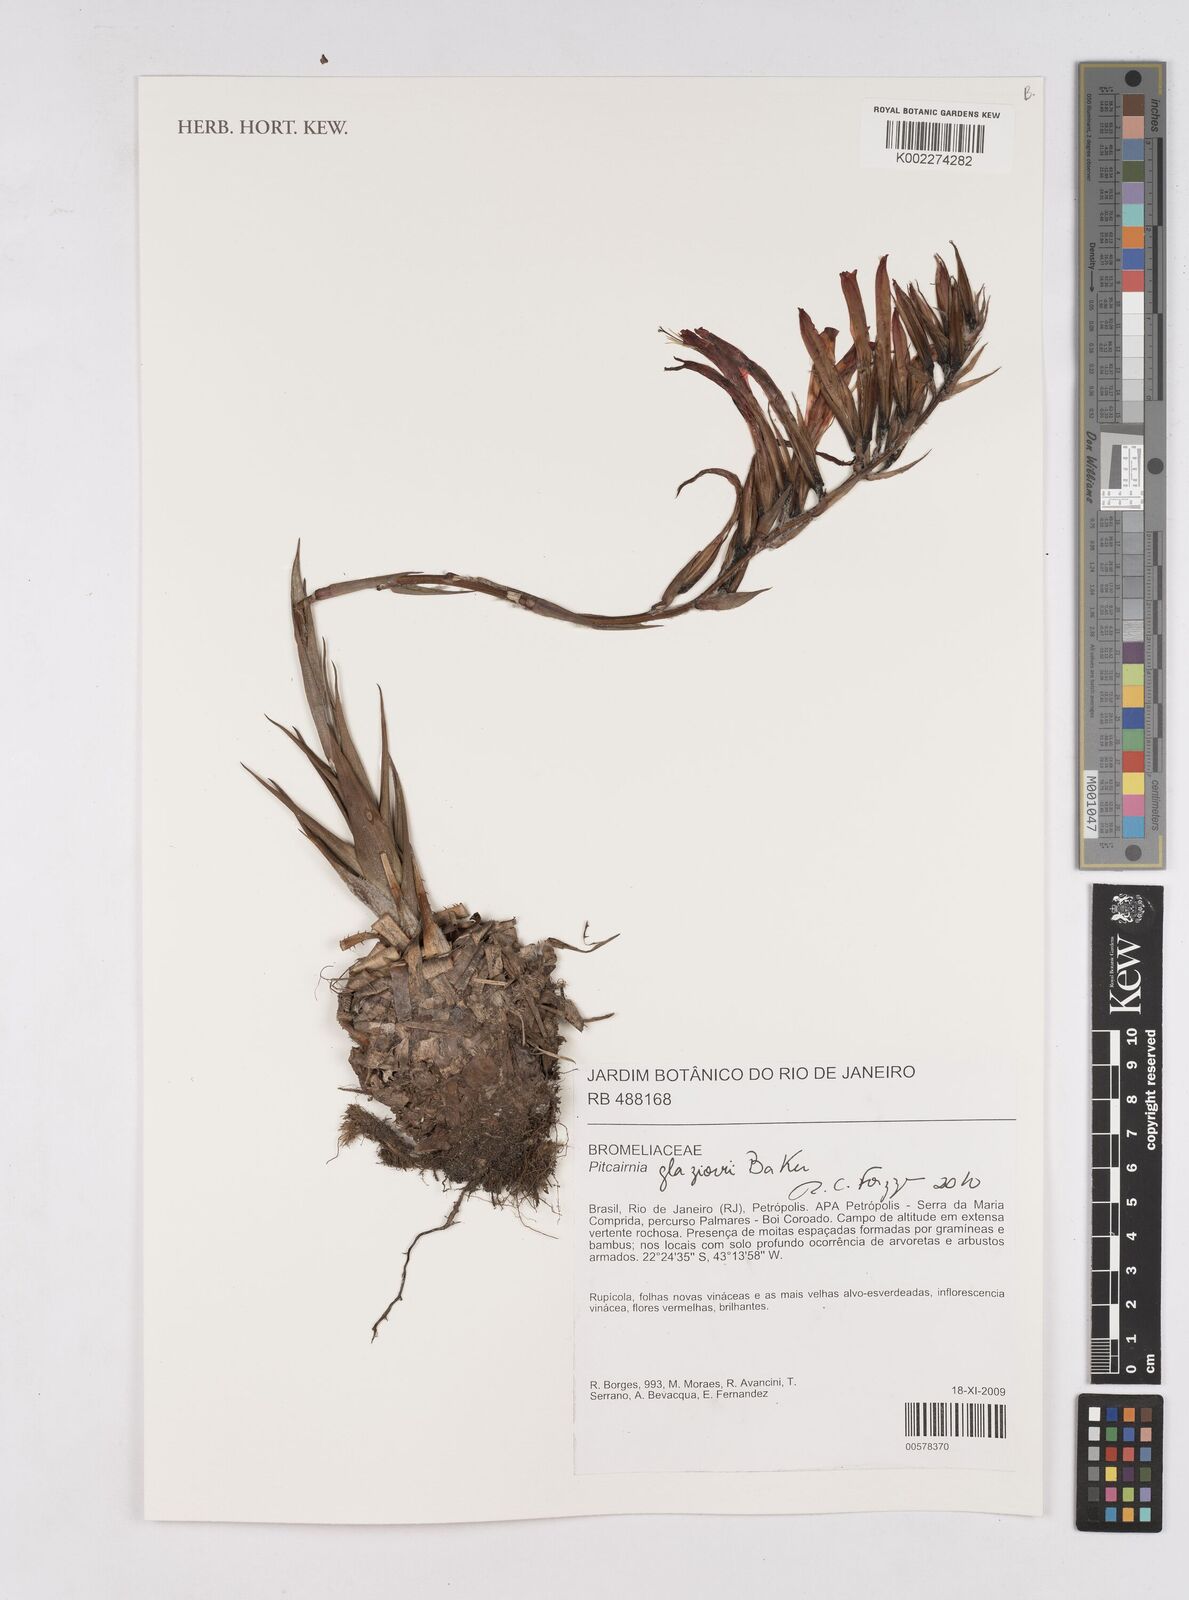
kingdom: Plantae
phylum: Tracheophyta
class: Liliopsida
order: Poales
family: Bromeliaceae
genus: Pitcairnia
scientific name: Pitcairnia glaziovii
